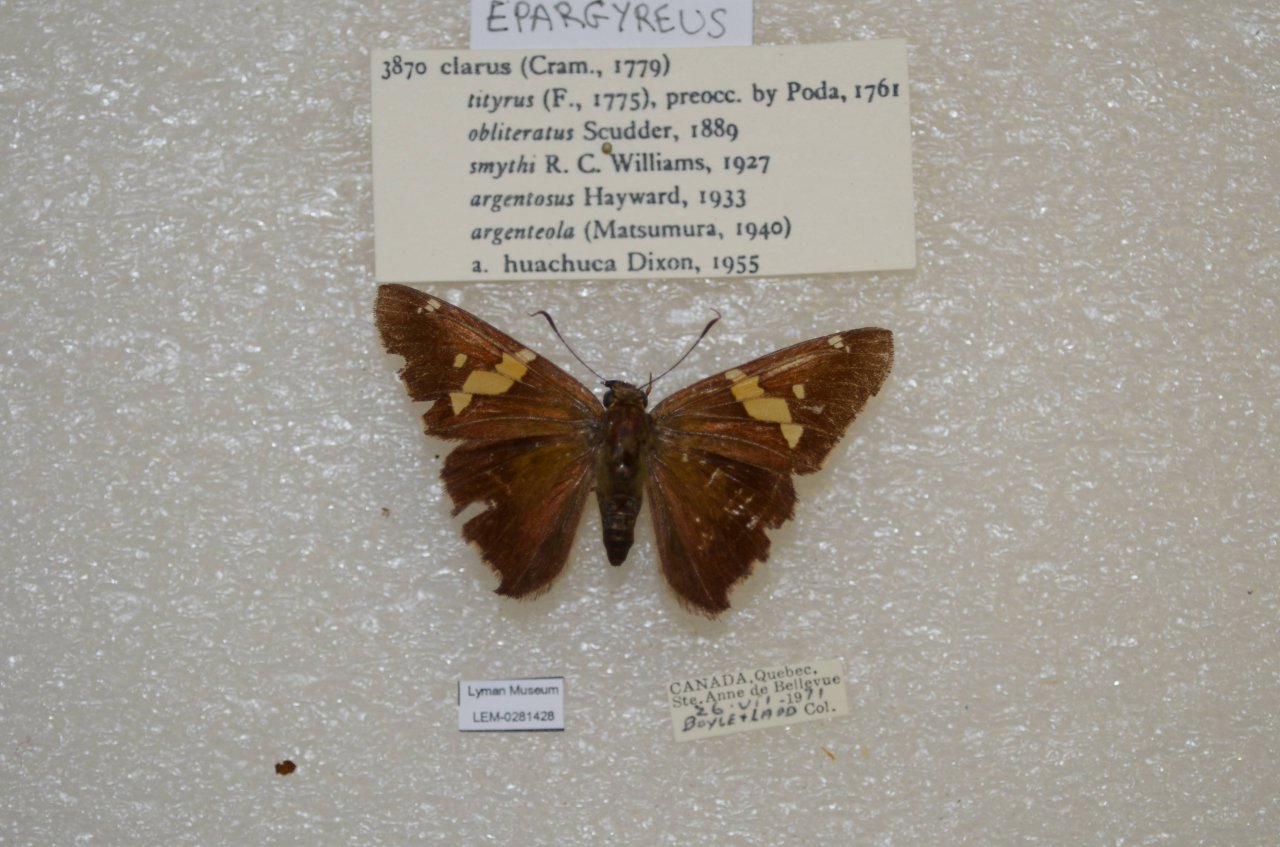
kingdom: Animalia
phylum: Arthropoda
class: Insecta
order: Lepidoptera
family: Hesperiidae
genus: Epargyreus
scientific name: Epargyreus clarus
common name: Silver-spotted Skipper
